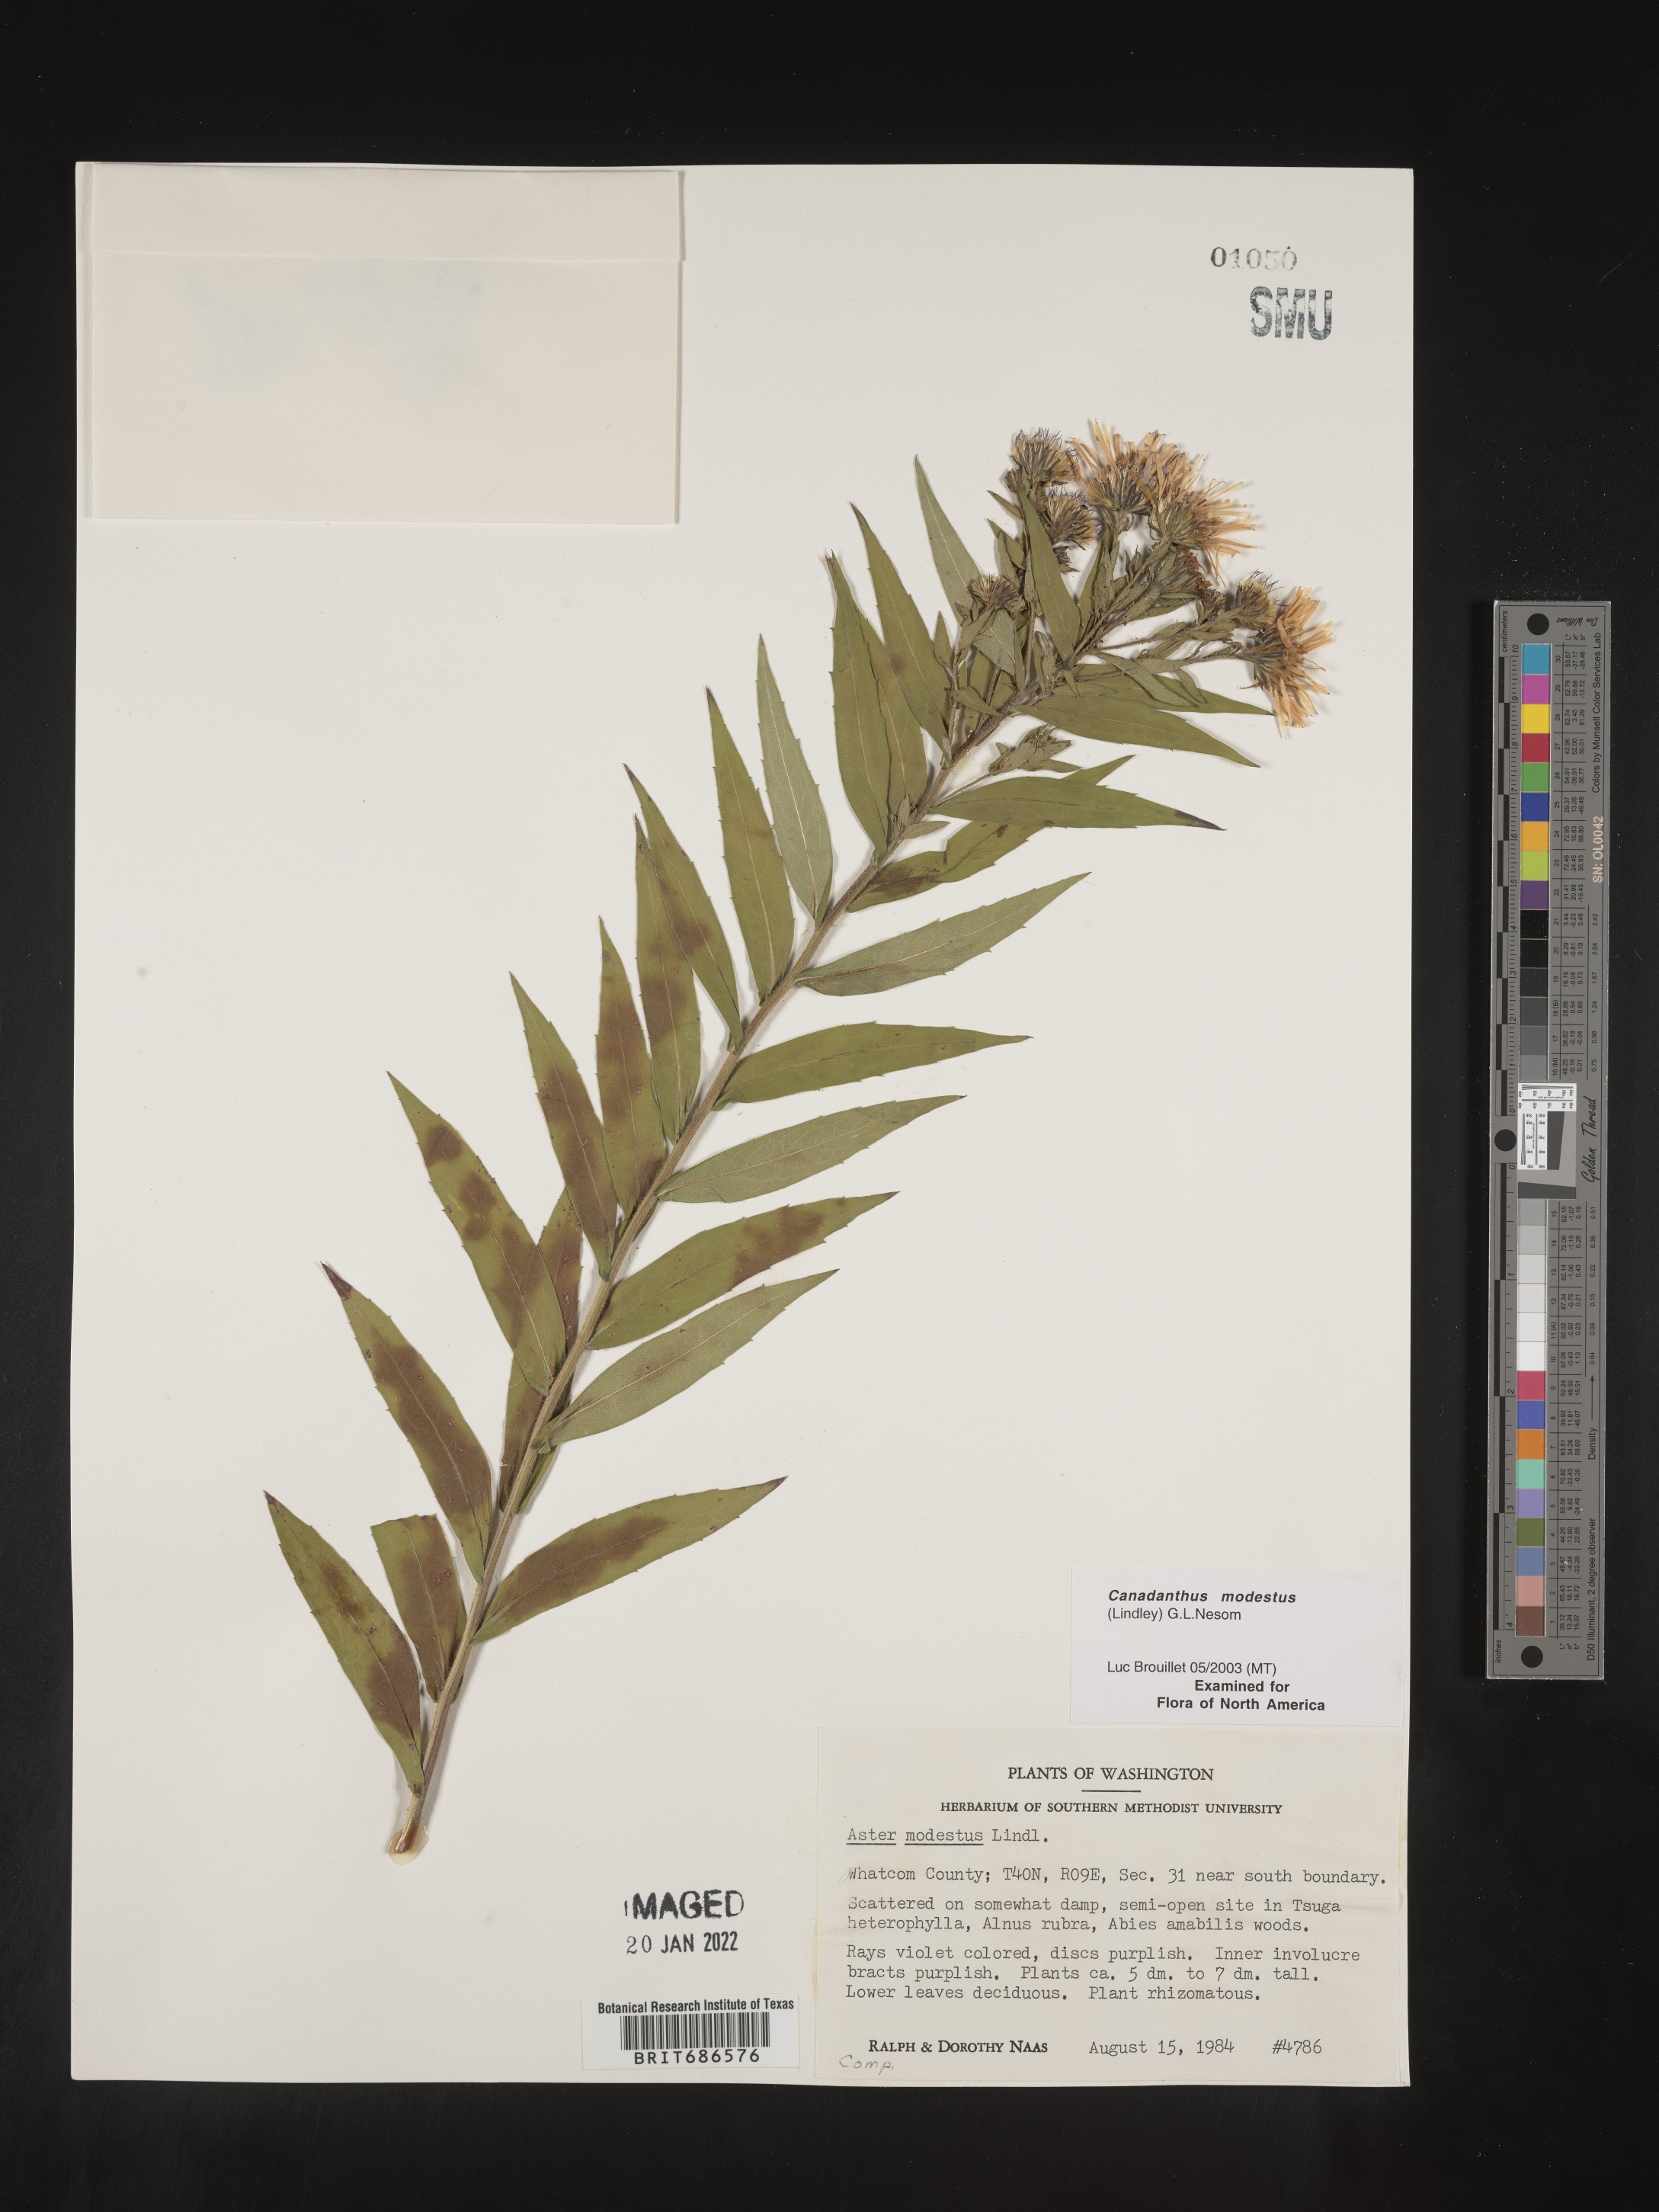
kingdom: Plantae
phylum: Tracheophyta
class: Magnoliopsida
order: Asterales
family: Asteraceae
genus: Canadanthus
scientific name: Canadanthus modestus
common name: Great northern aster
